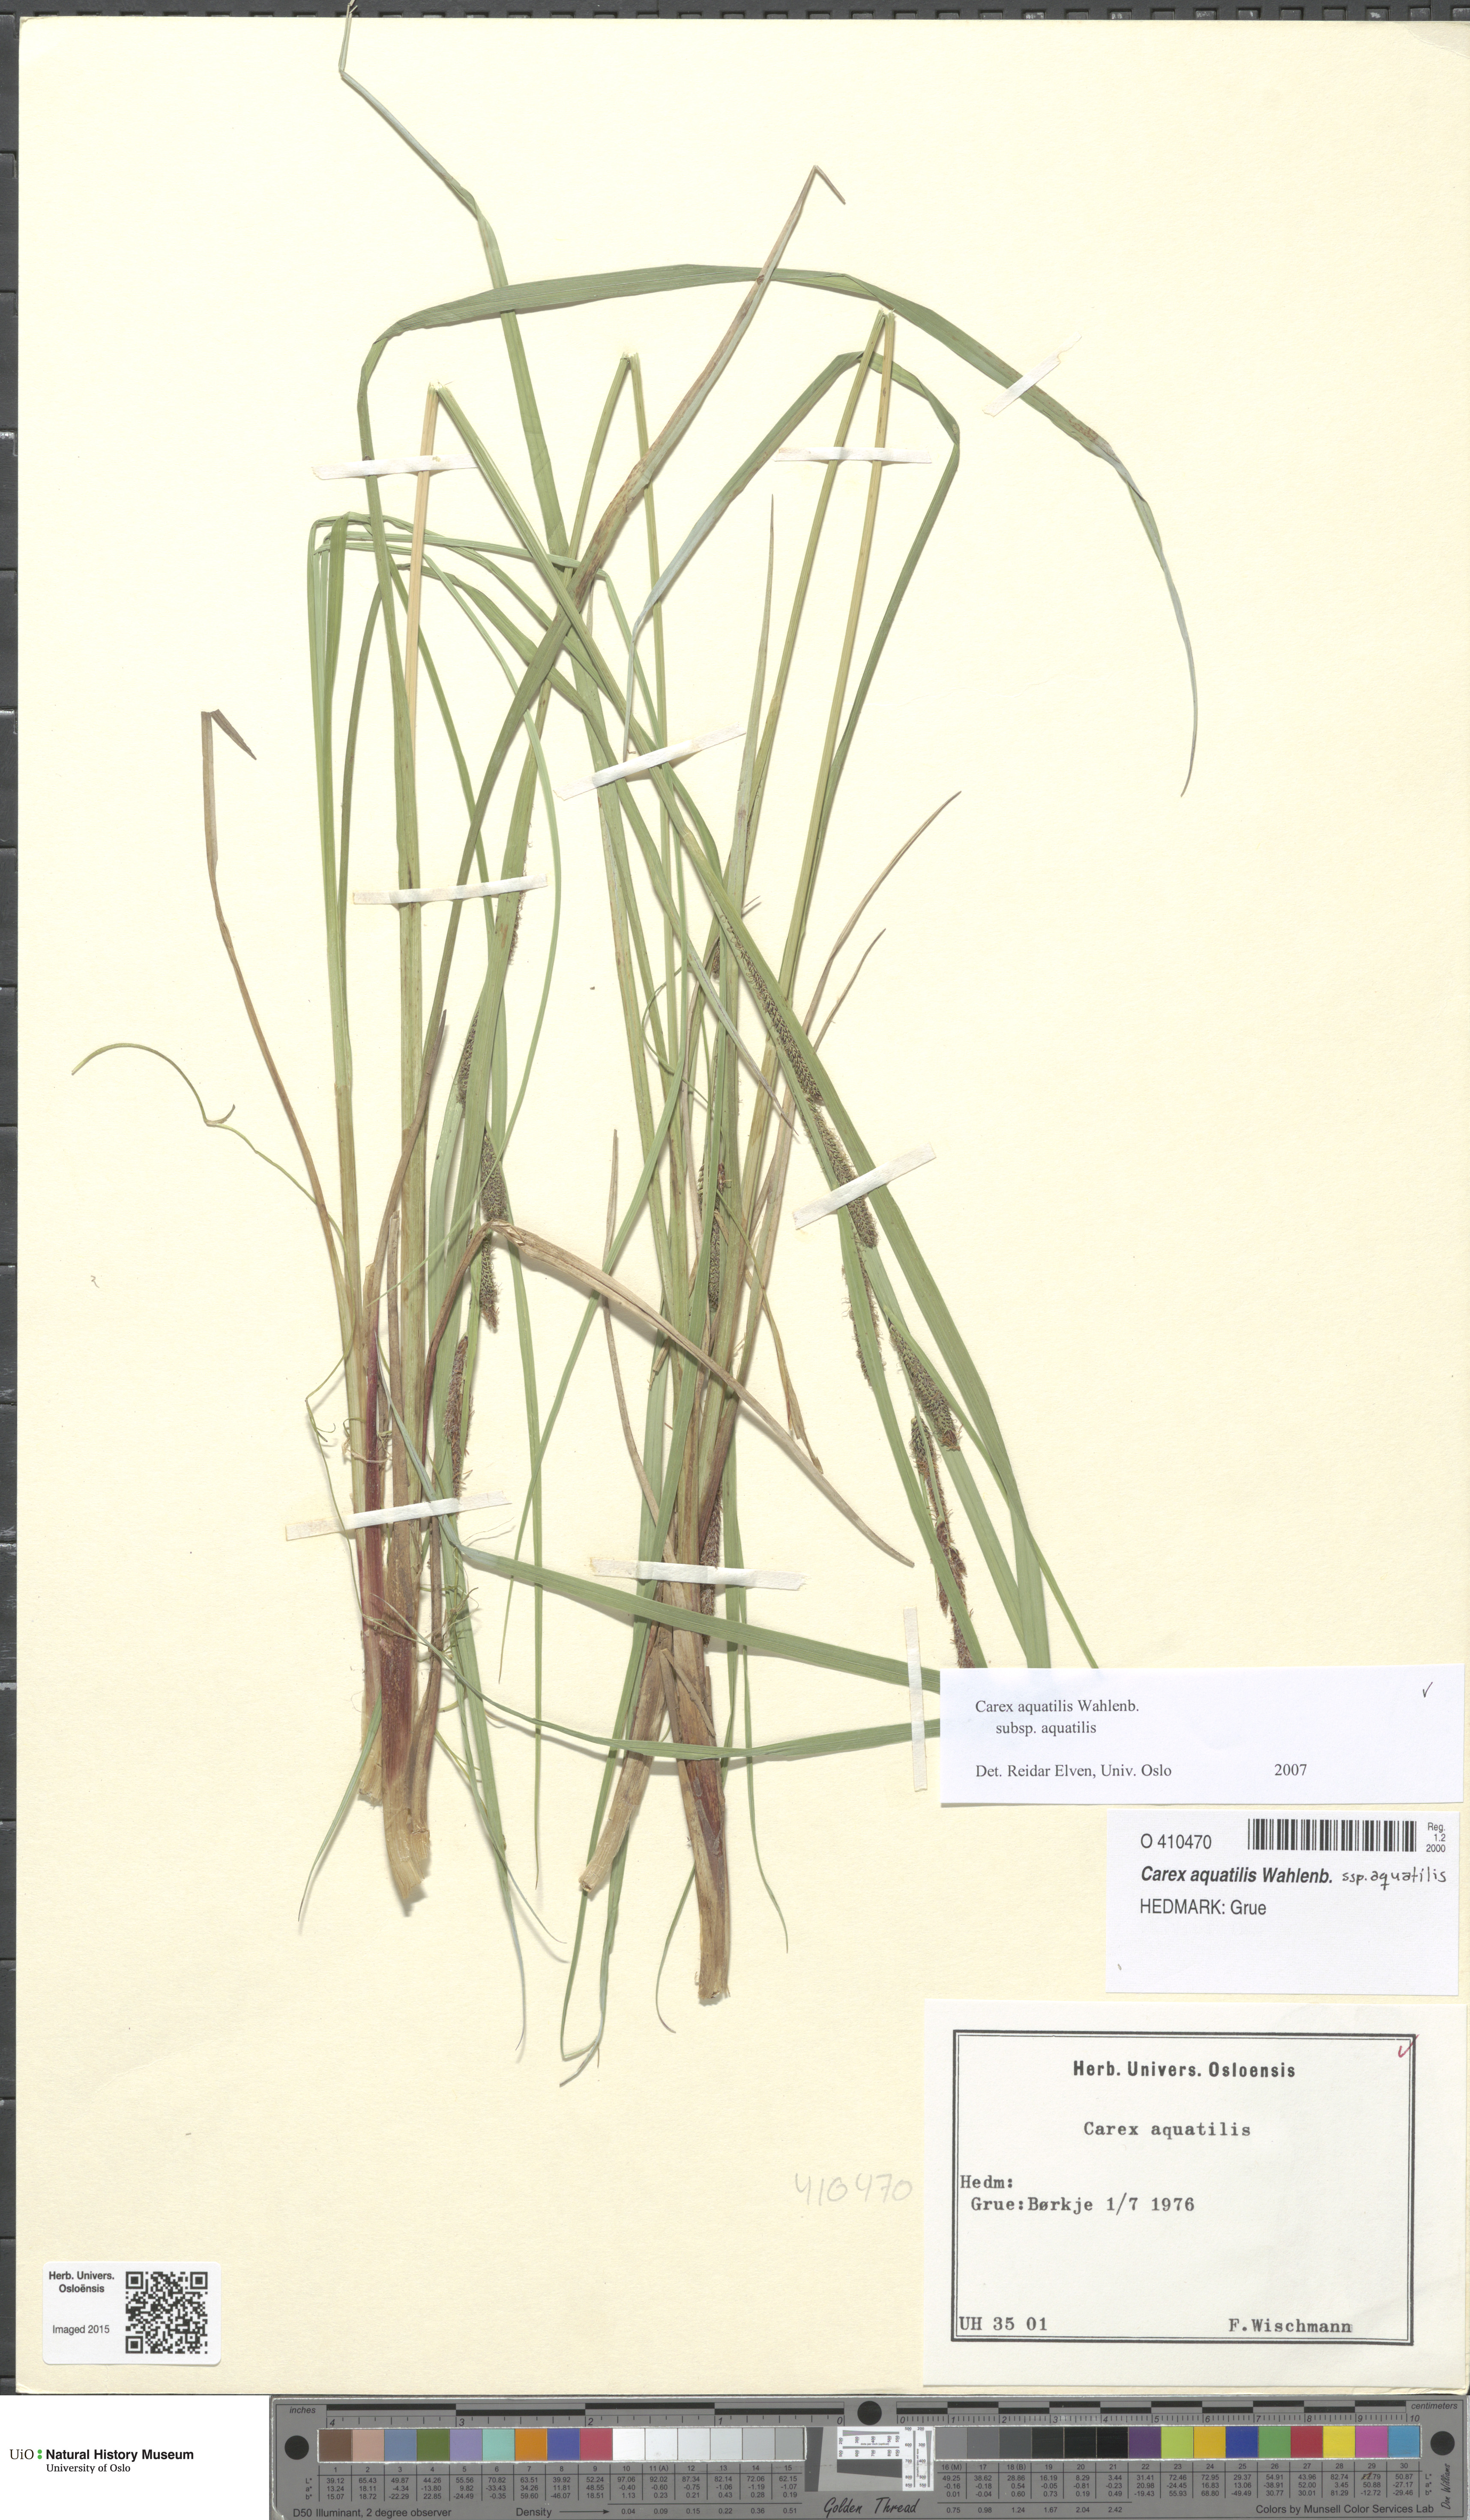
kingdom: Plantae
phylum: Tracheophyta
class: Liliopsida
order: Poales
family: Cyperaceae
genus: Carex
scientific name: Carex aquatilis
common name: Water sedge
